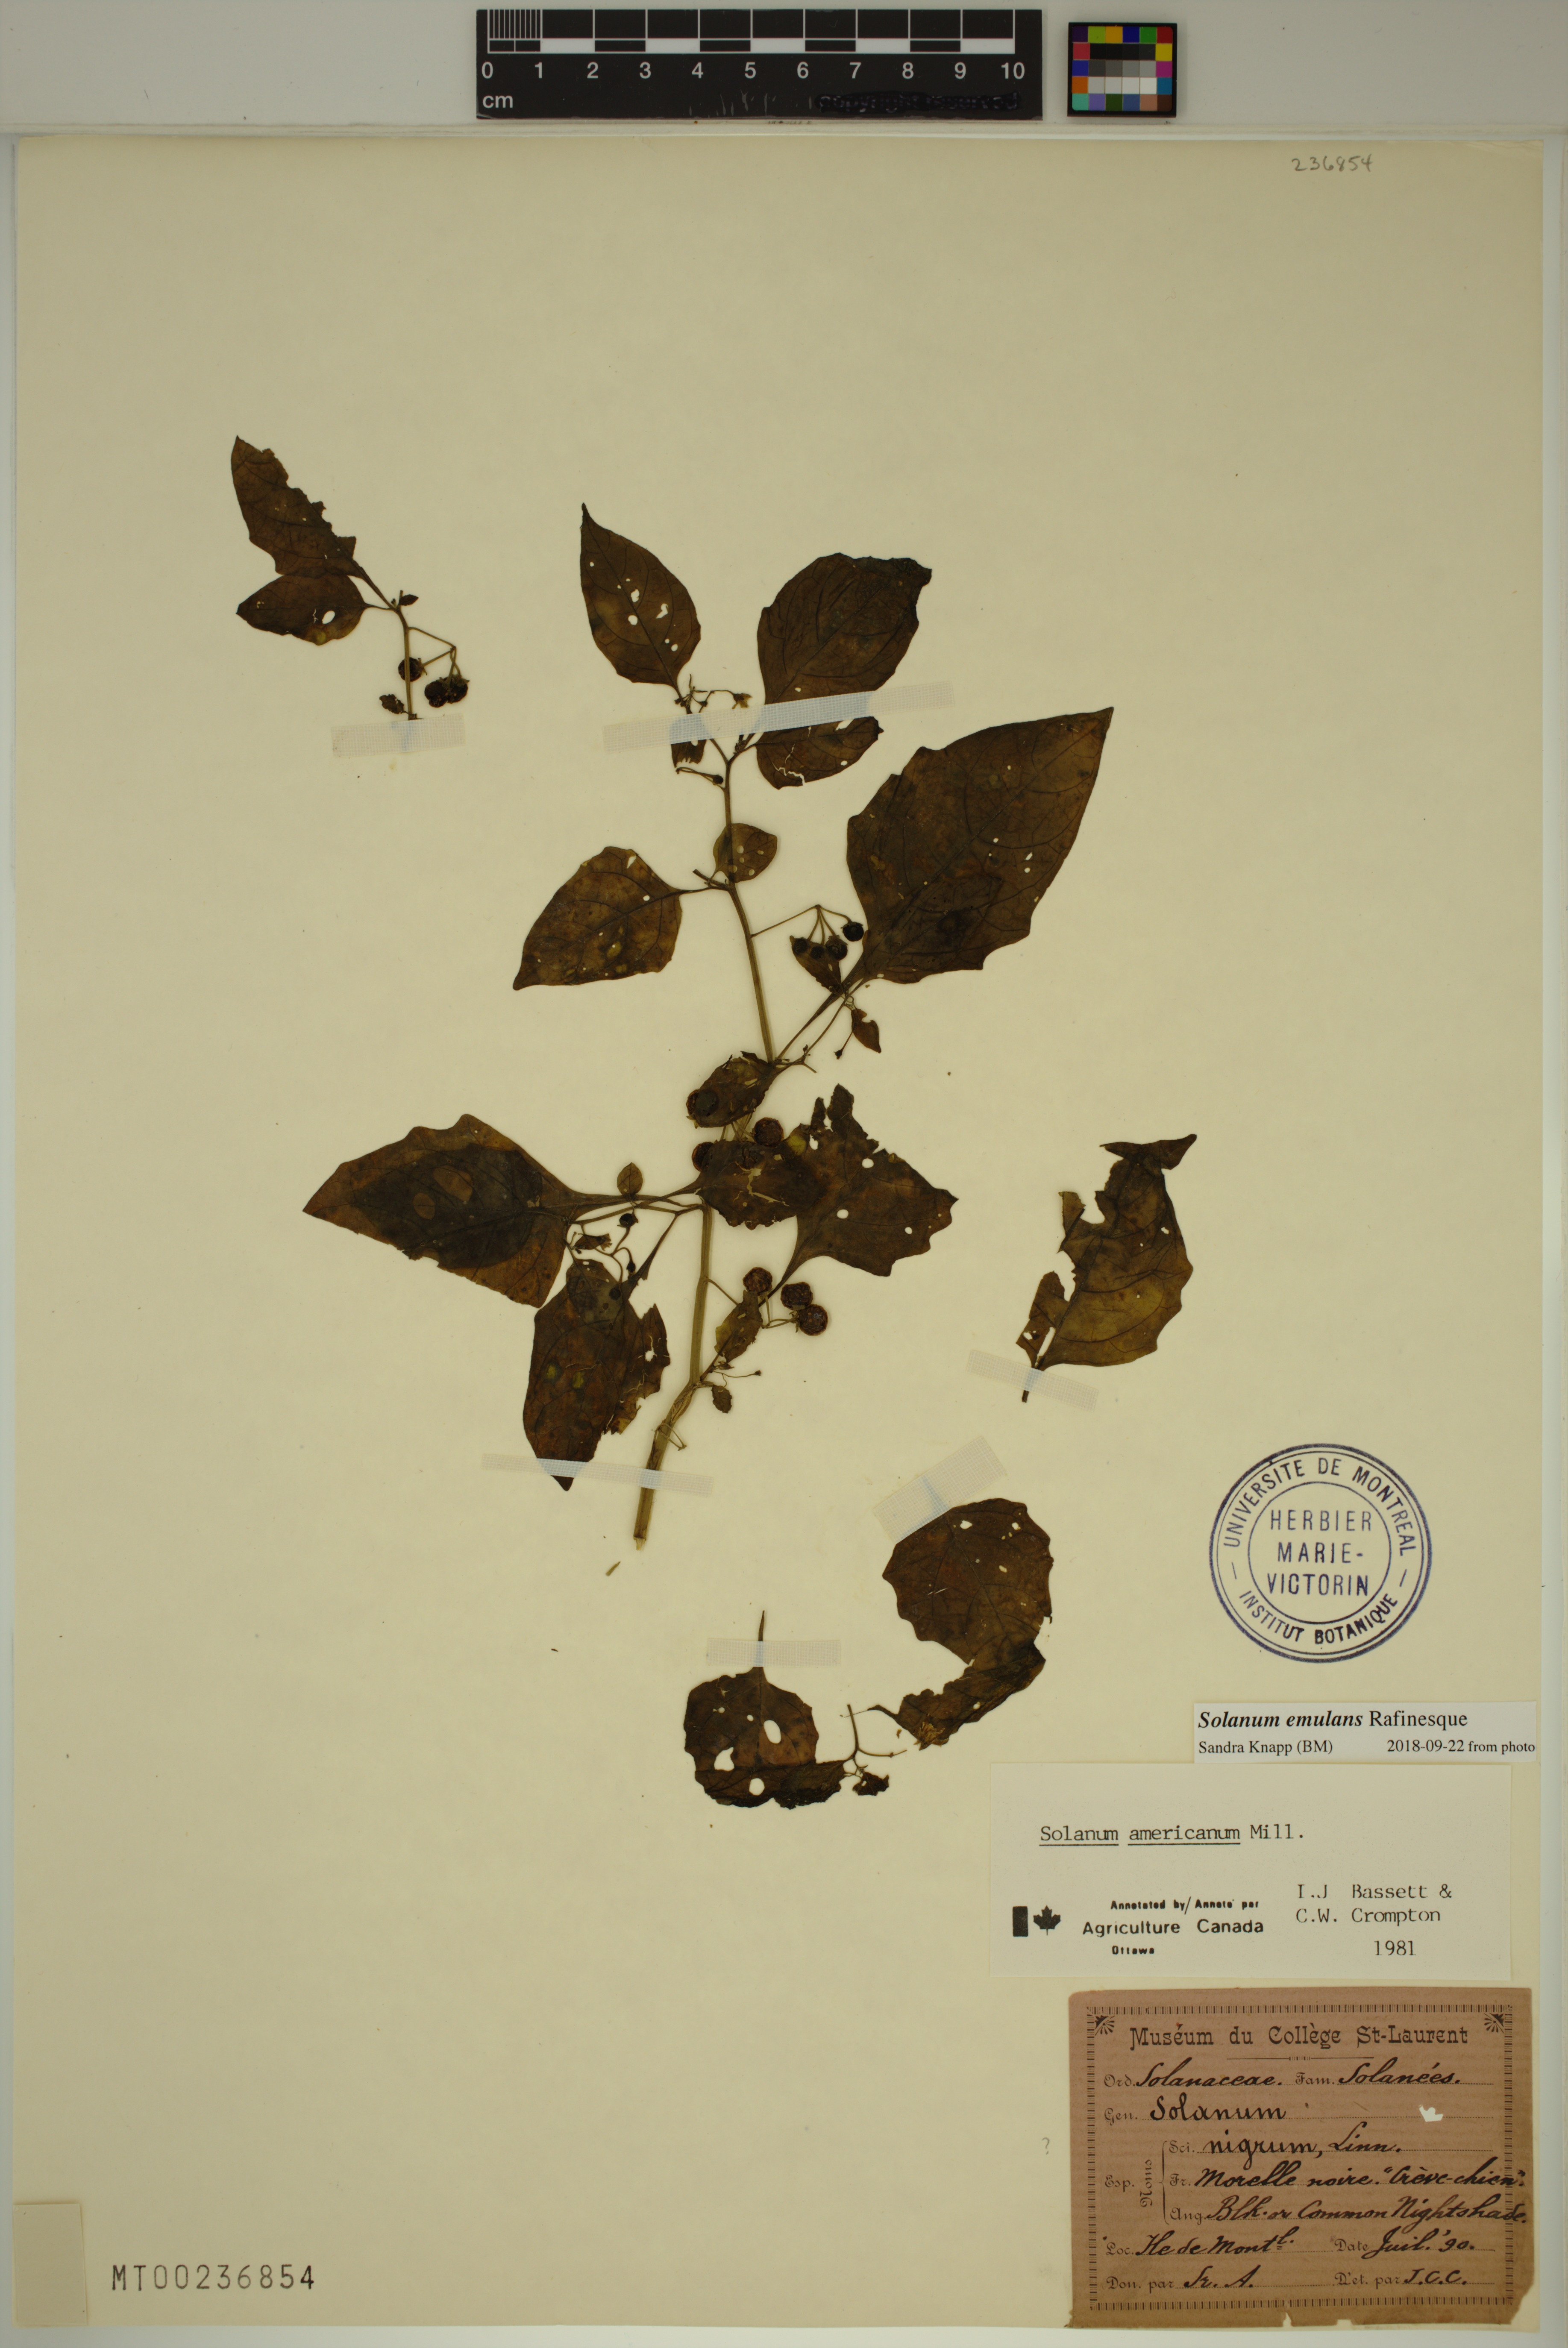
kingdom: Plantae
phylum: Tracheophyta
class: Magnoliopsida
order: Solanales
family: Solanaceae
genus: Solanum
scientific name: Solanum emulans
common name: Eastern black nightshade
